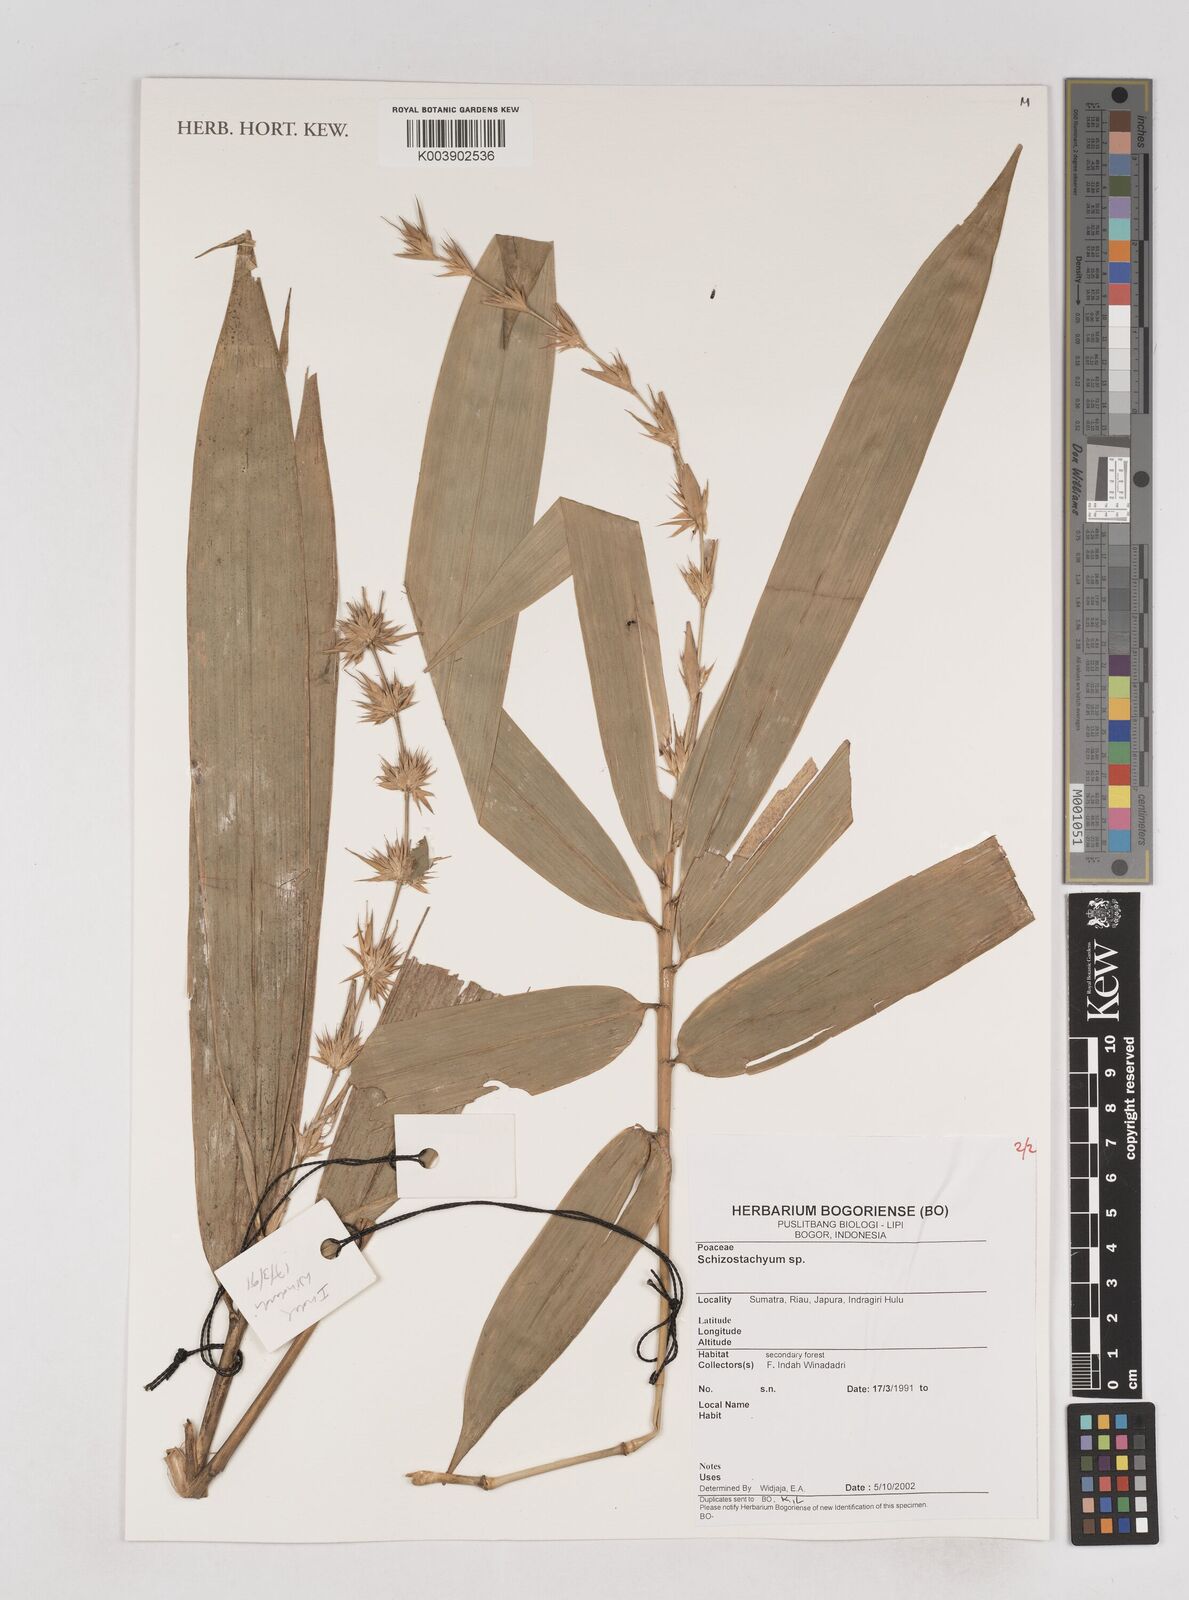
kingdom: Plantae
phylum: Tracheophyta
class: Liliopsida
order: Poales
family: Poaceae
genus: Schizostachyum
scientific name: Schizostachyum
